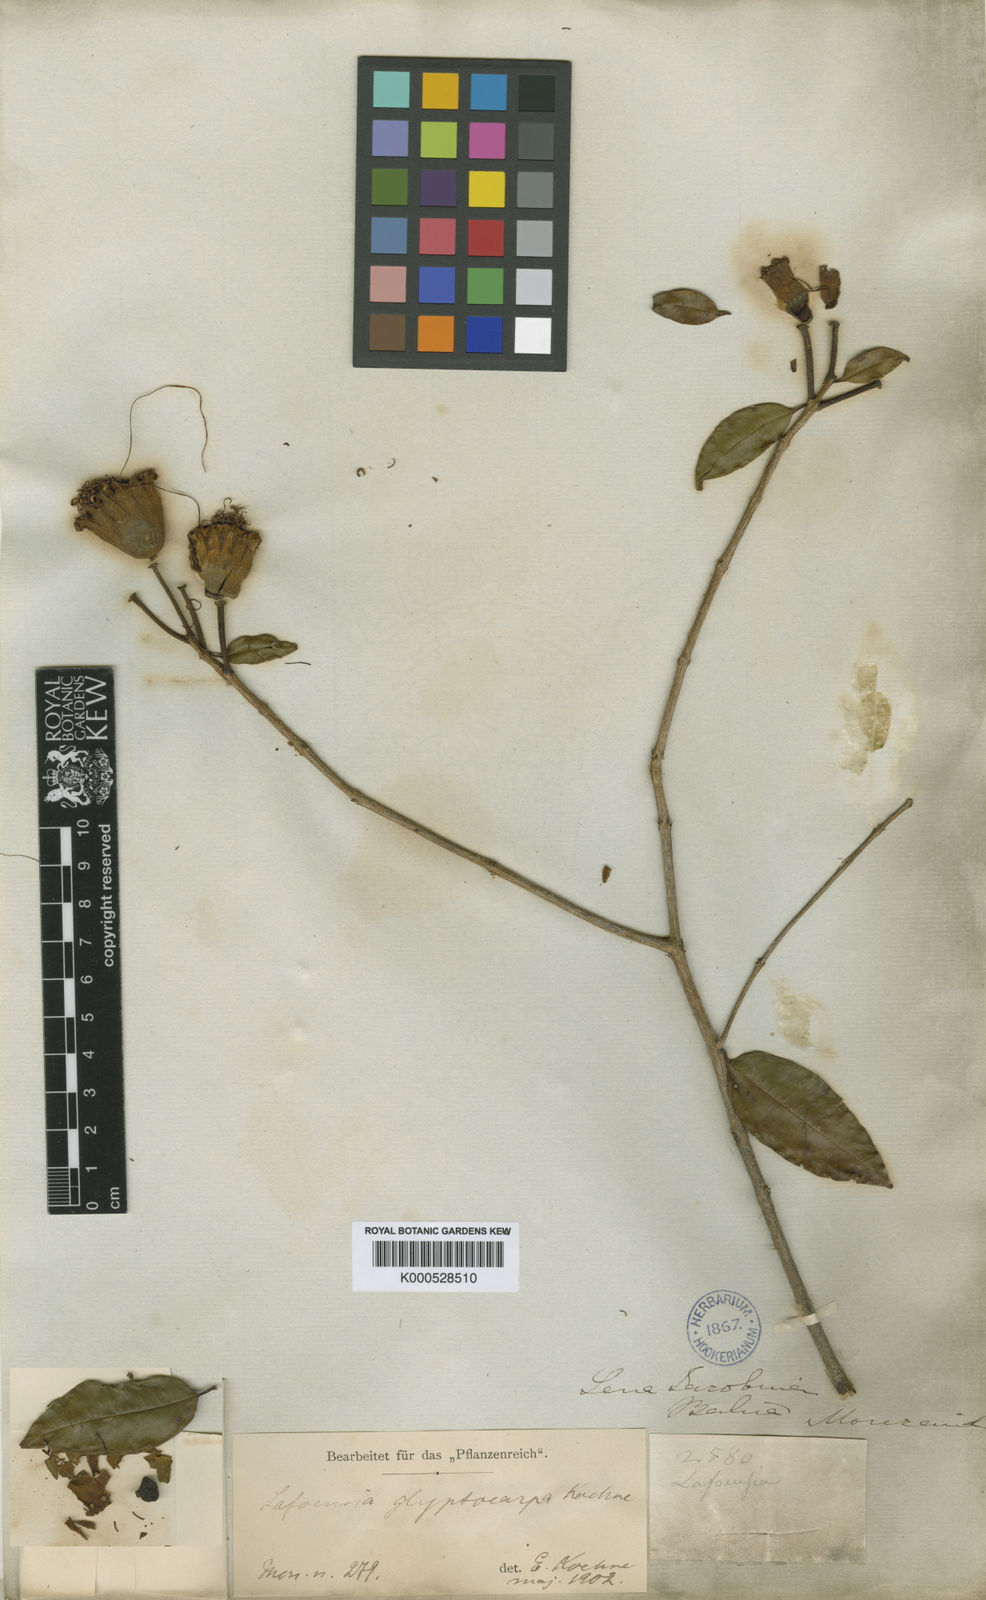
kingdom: Plantae
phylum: Tracheophyta
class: Magnoliopsida
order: Myrtales
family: Lythraceae
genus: Lafoensia
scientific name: Lafoensia glyptocarpa
